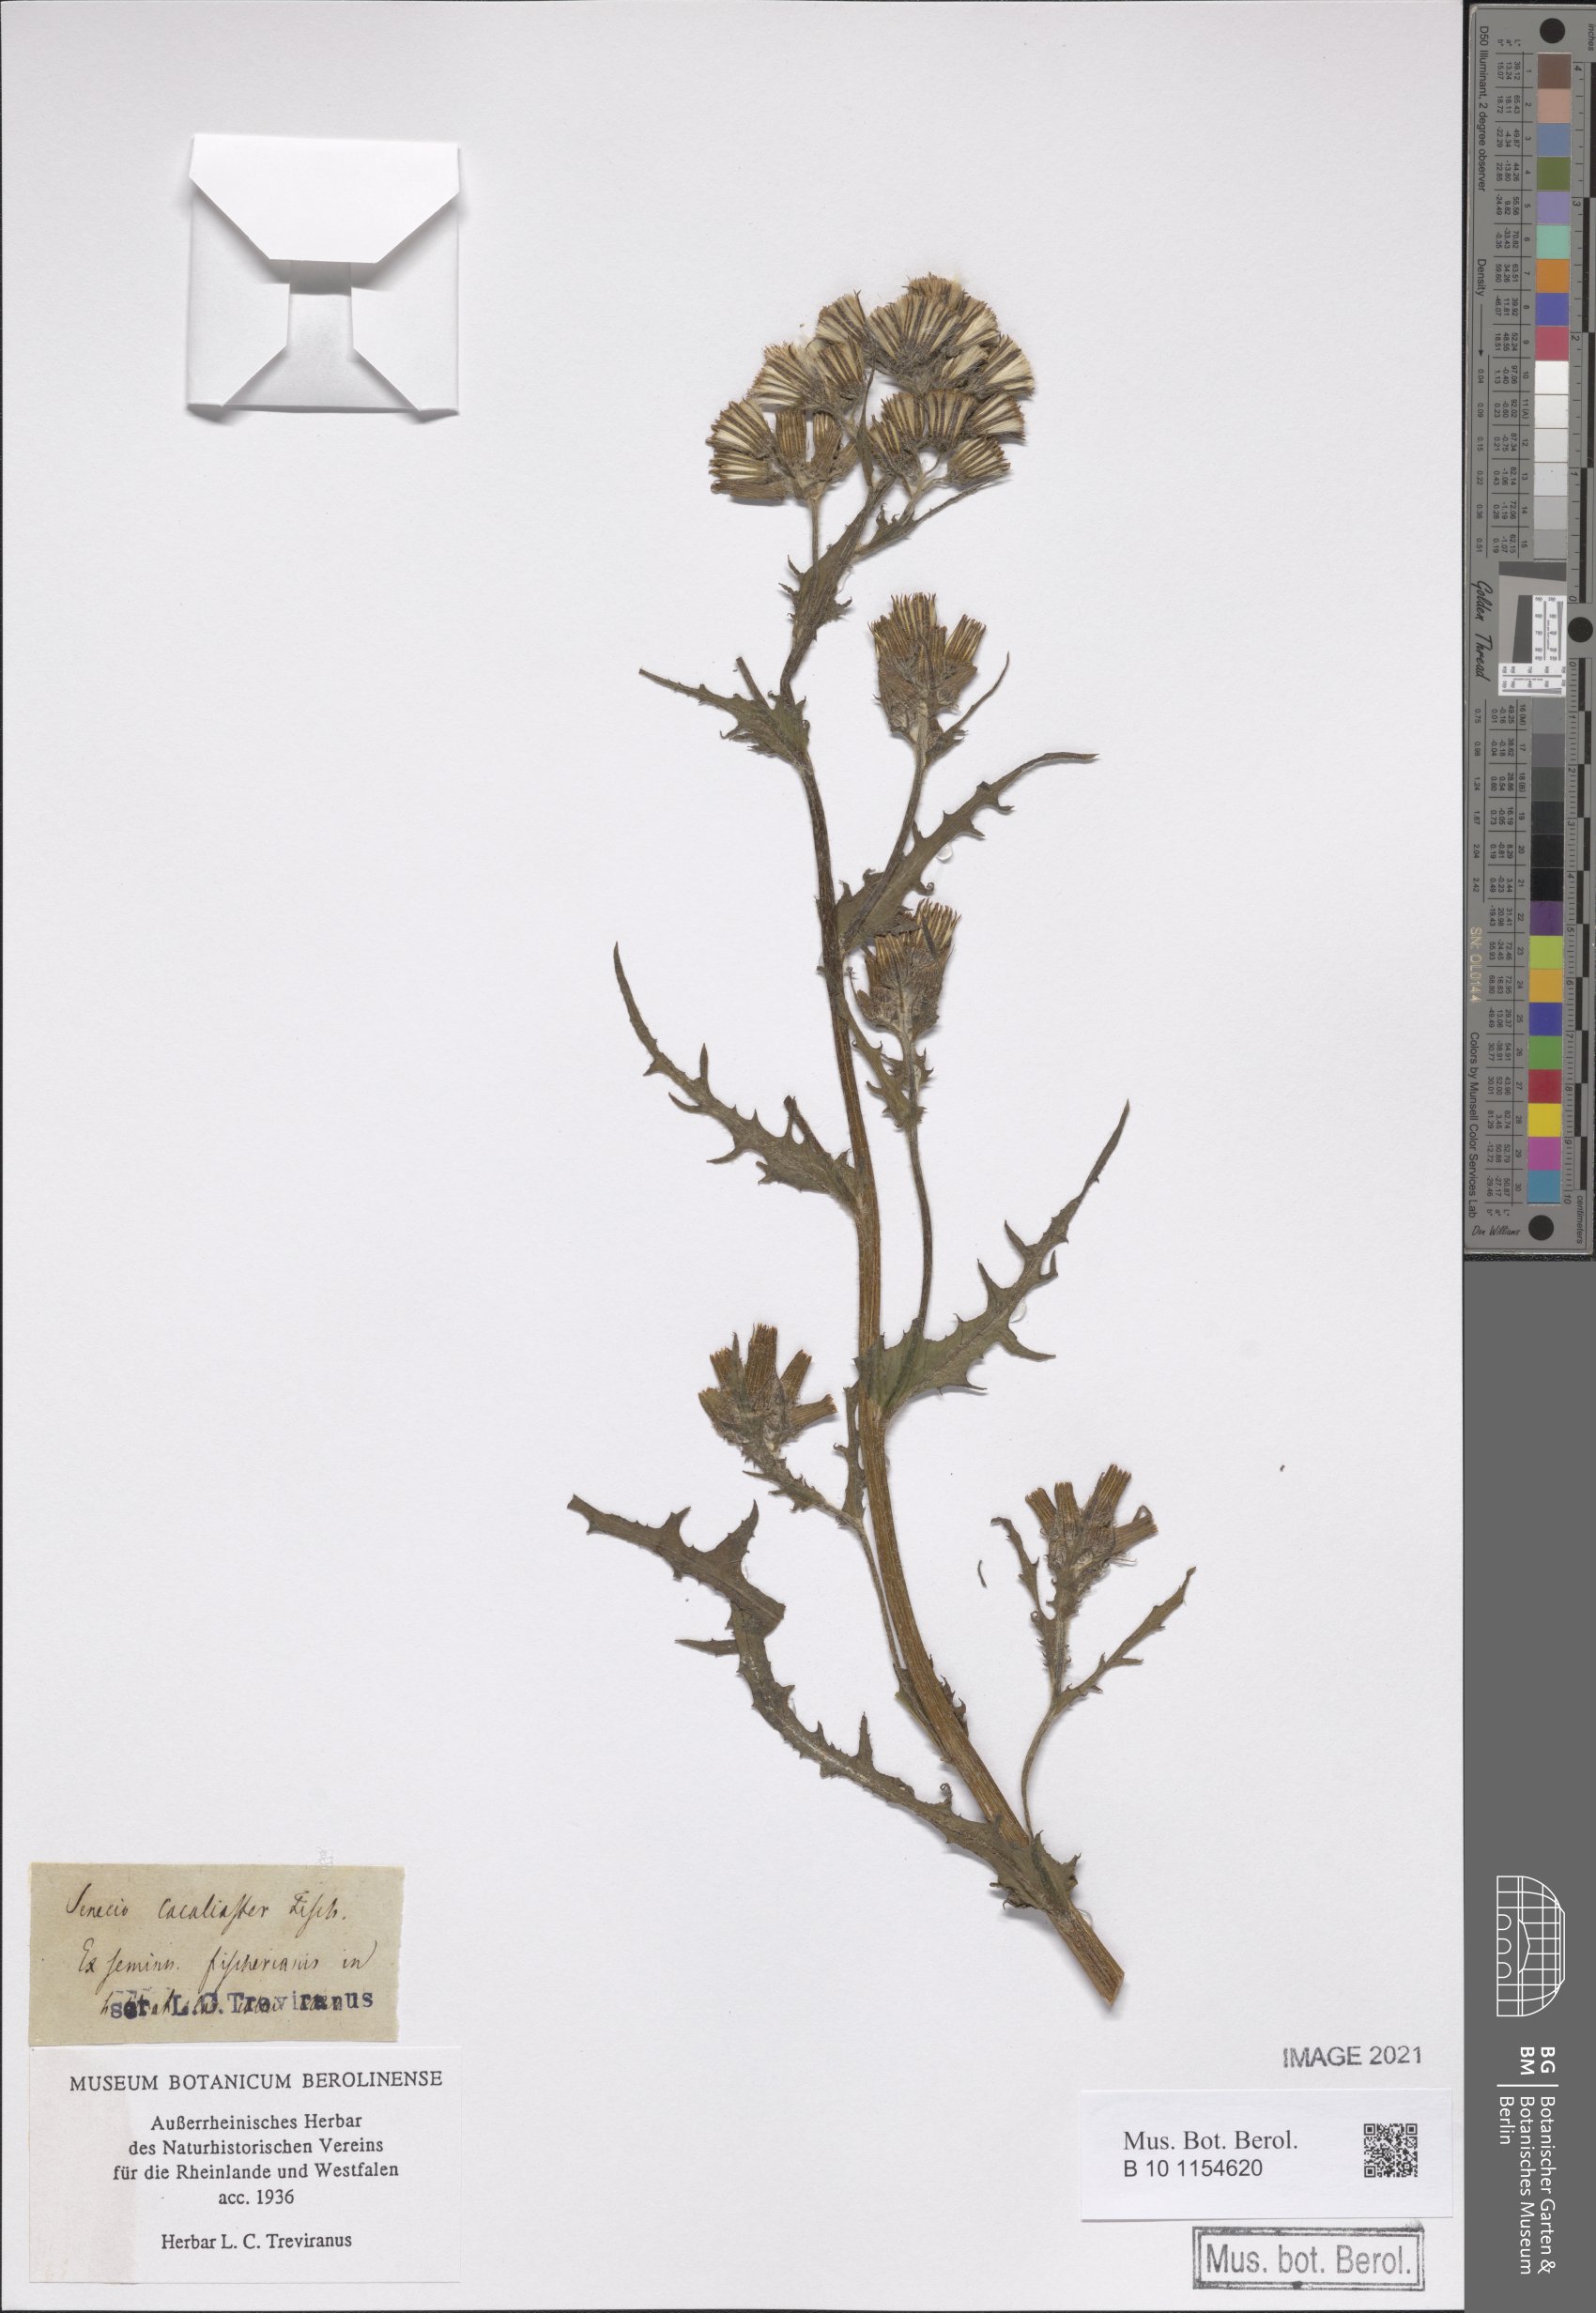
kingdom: Plantae
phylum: Tracheophyta
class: Magnoliopsida
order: Asterales
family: Asteraceae
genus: Senecio
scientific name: Senecio cacaliaster
